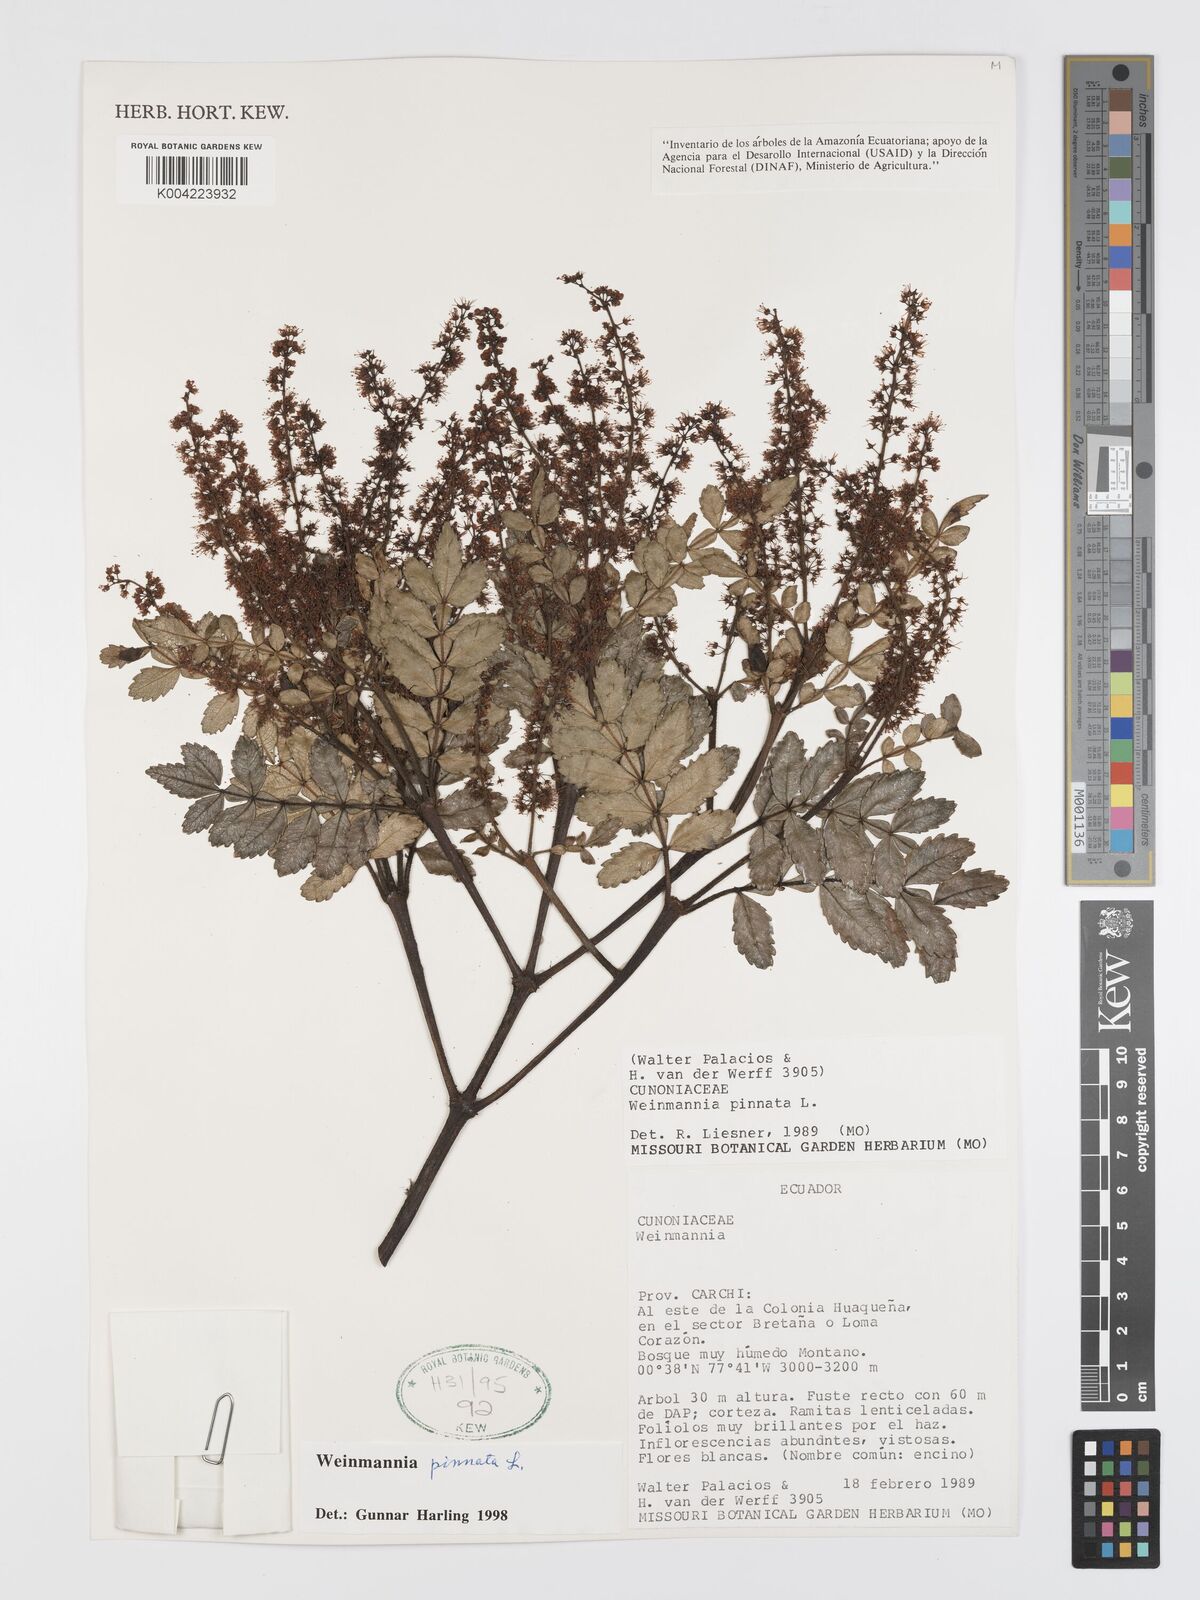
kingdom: Plantae
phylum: Tracheophyta
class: Magnoliopsida
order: Oxalidales
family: Cunoniaceae
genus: Weinmannia
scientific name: Weinmannia pinnata
